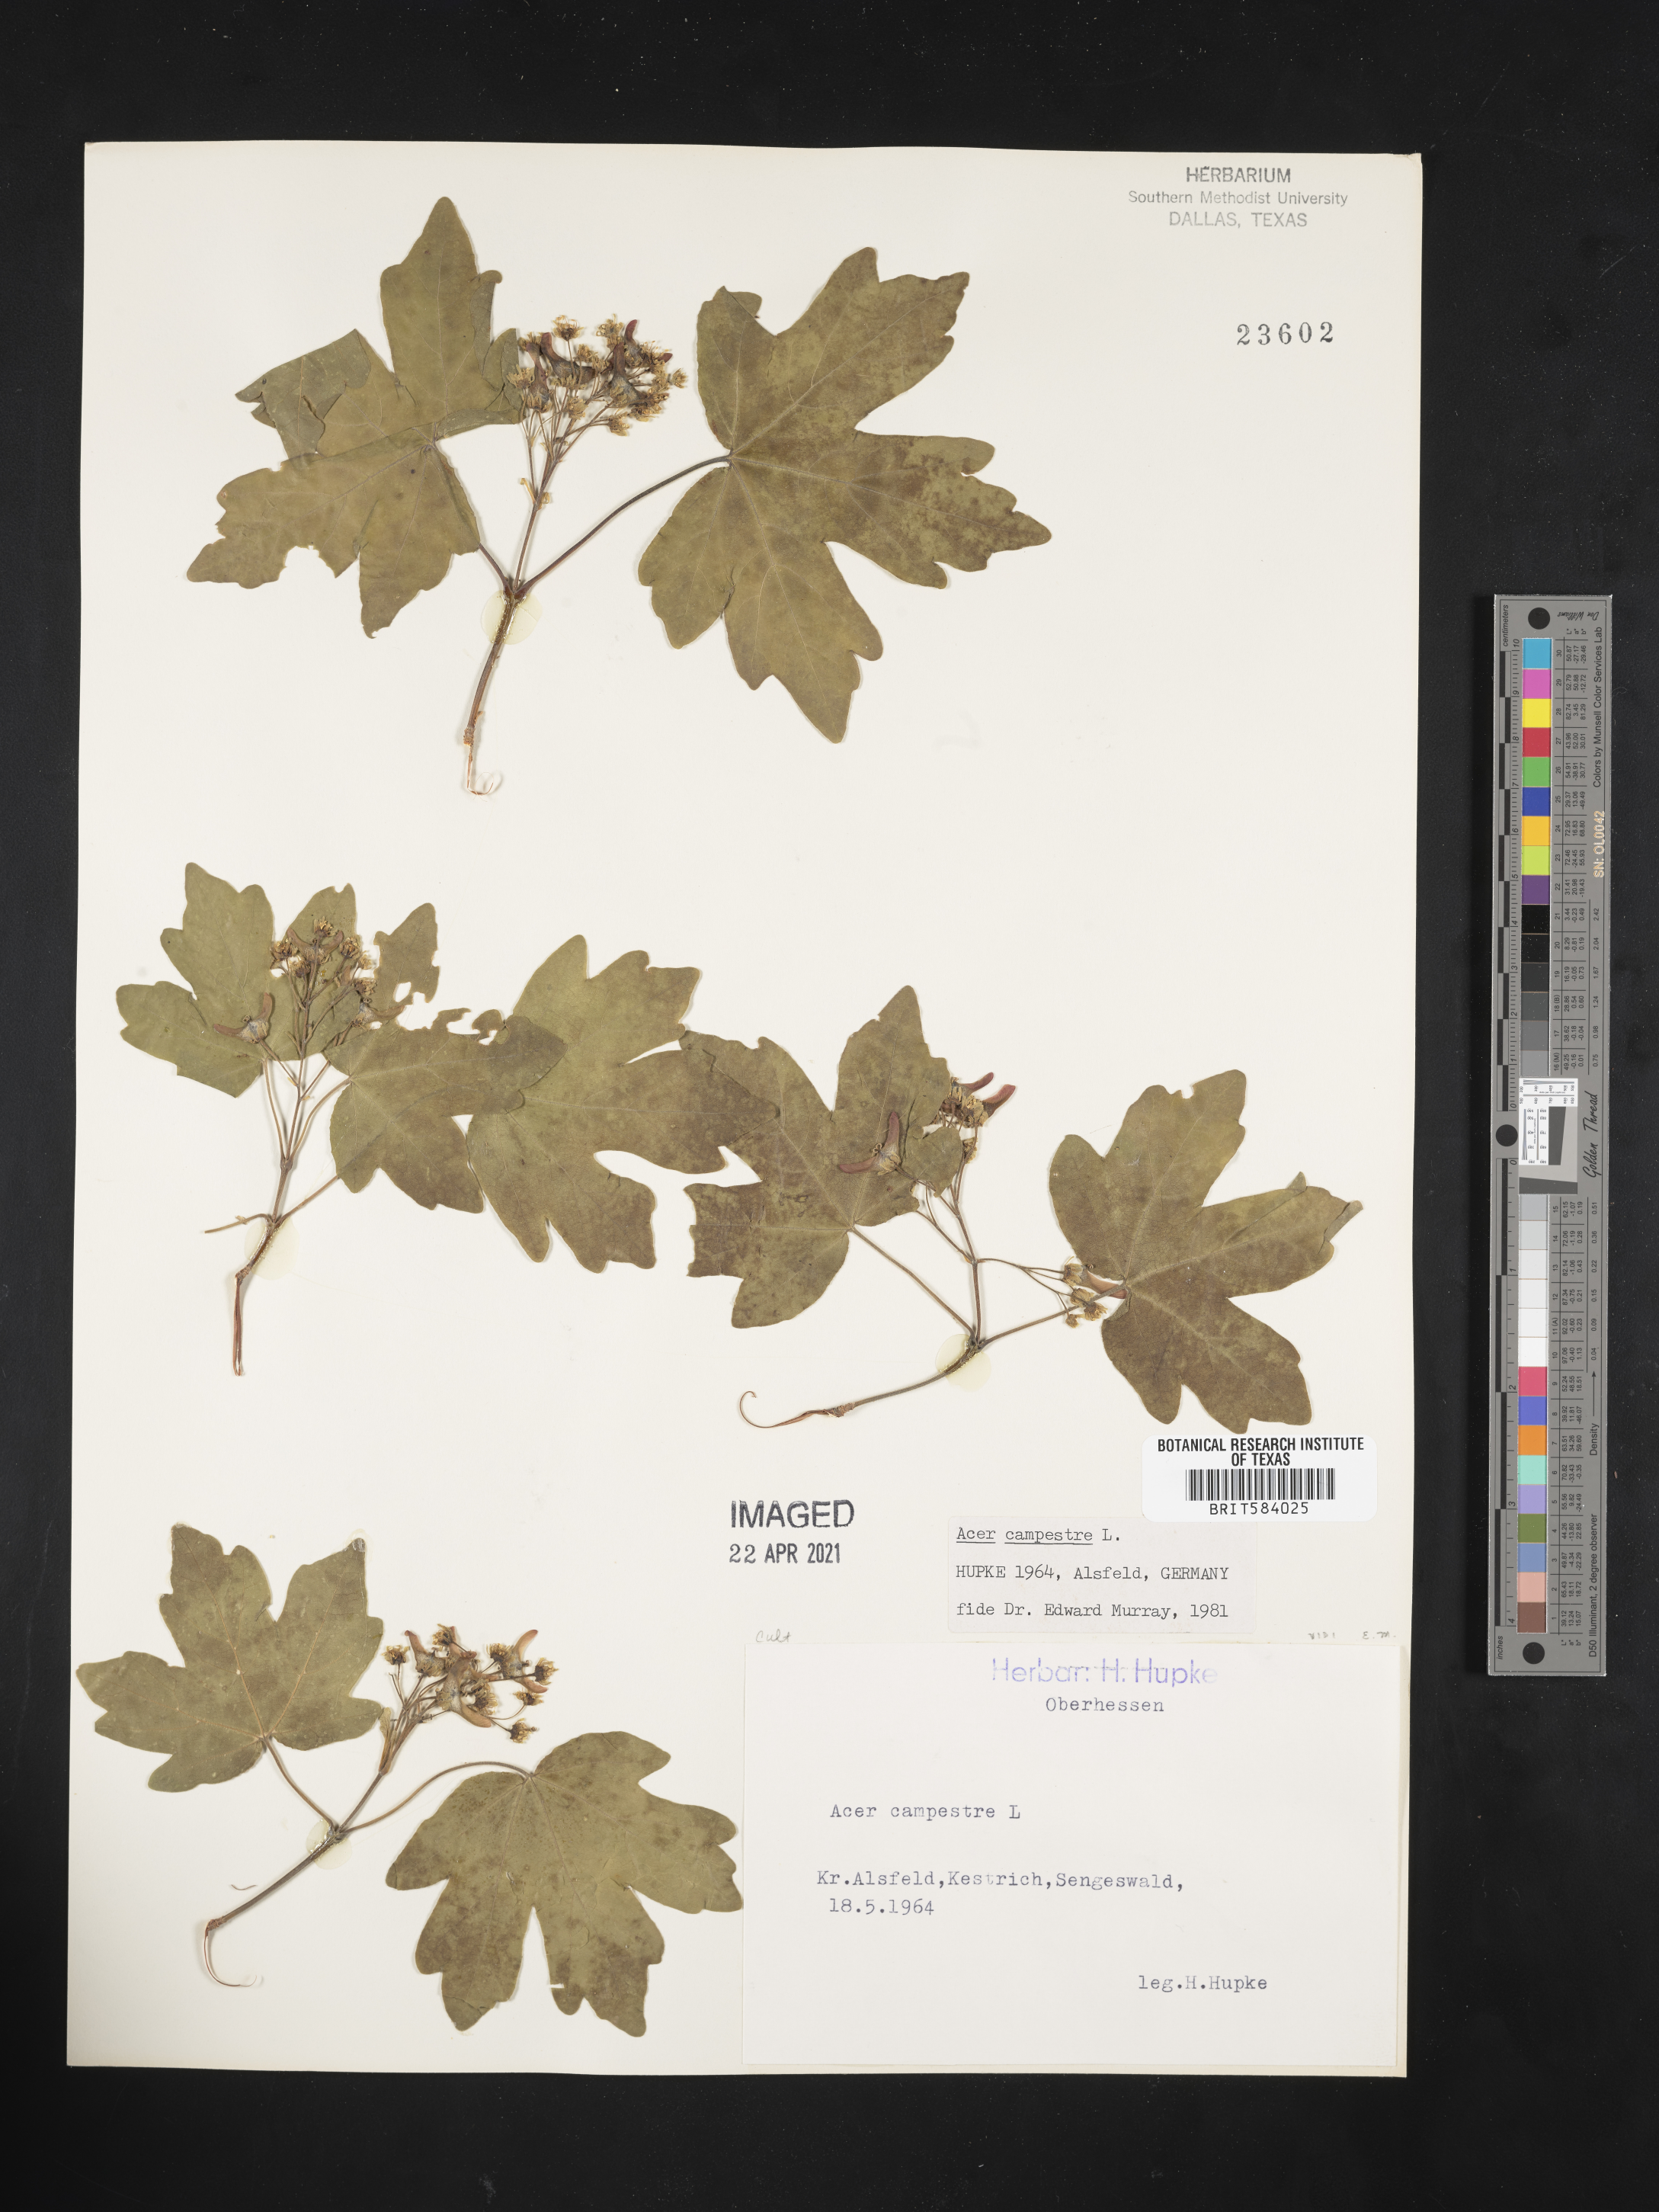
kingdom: Plantae
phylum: Tracheophyta
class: Magnoliopsida
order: Sapindales
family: Sapindaceae
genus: Acer
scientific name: Acer campestre
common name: Field maple
